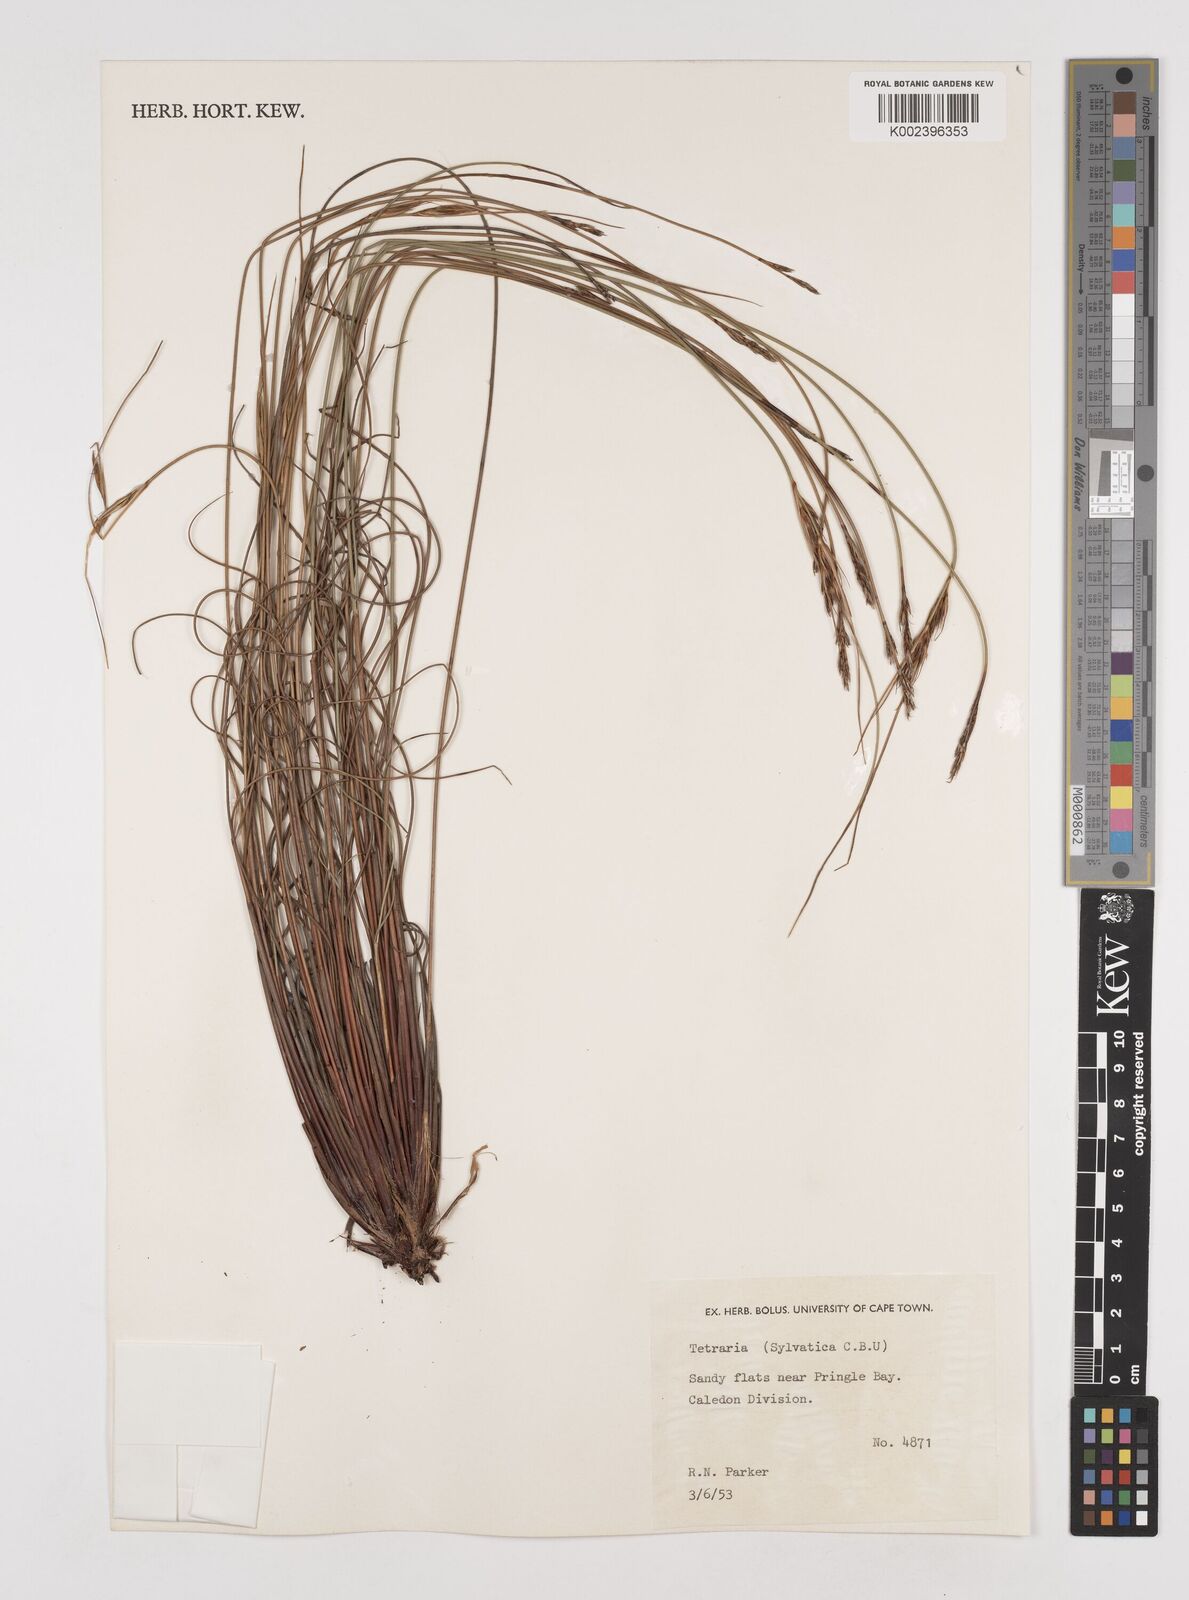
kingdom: Plantae
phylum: Tracheophyta
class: Liliopsida
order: Poales
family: Cyperaceae
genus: Schoenus
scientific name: Schoenus cuspidatus
